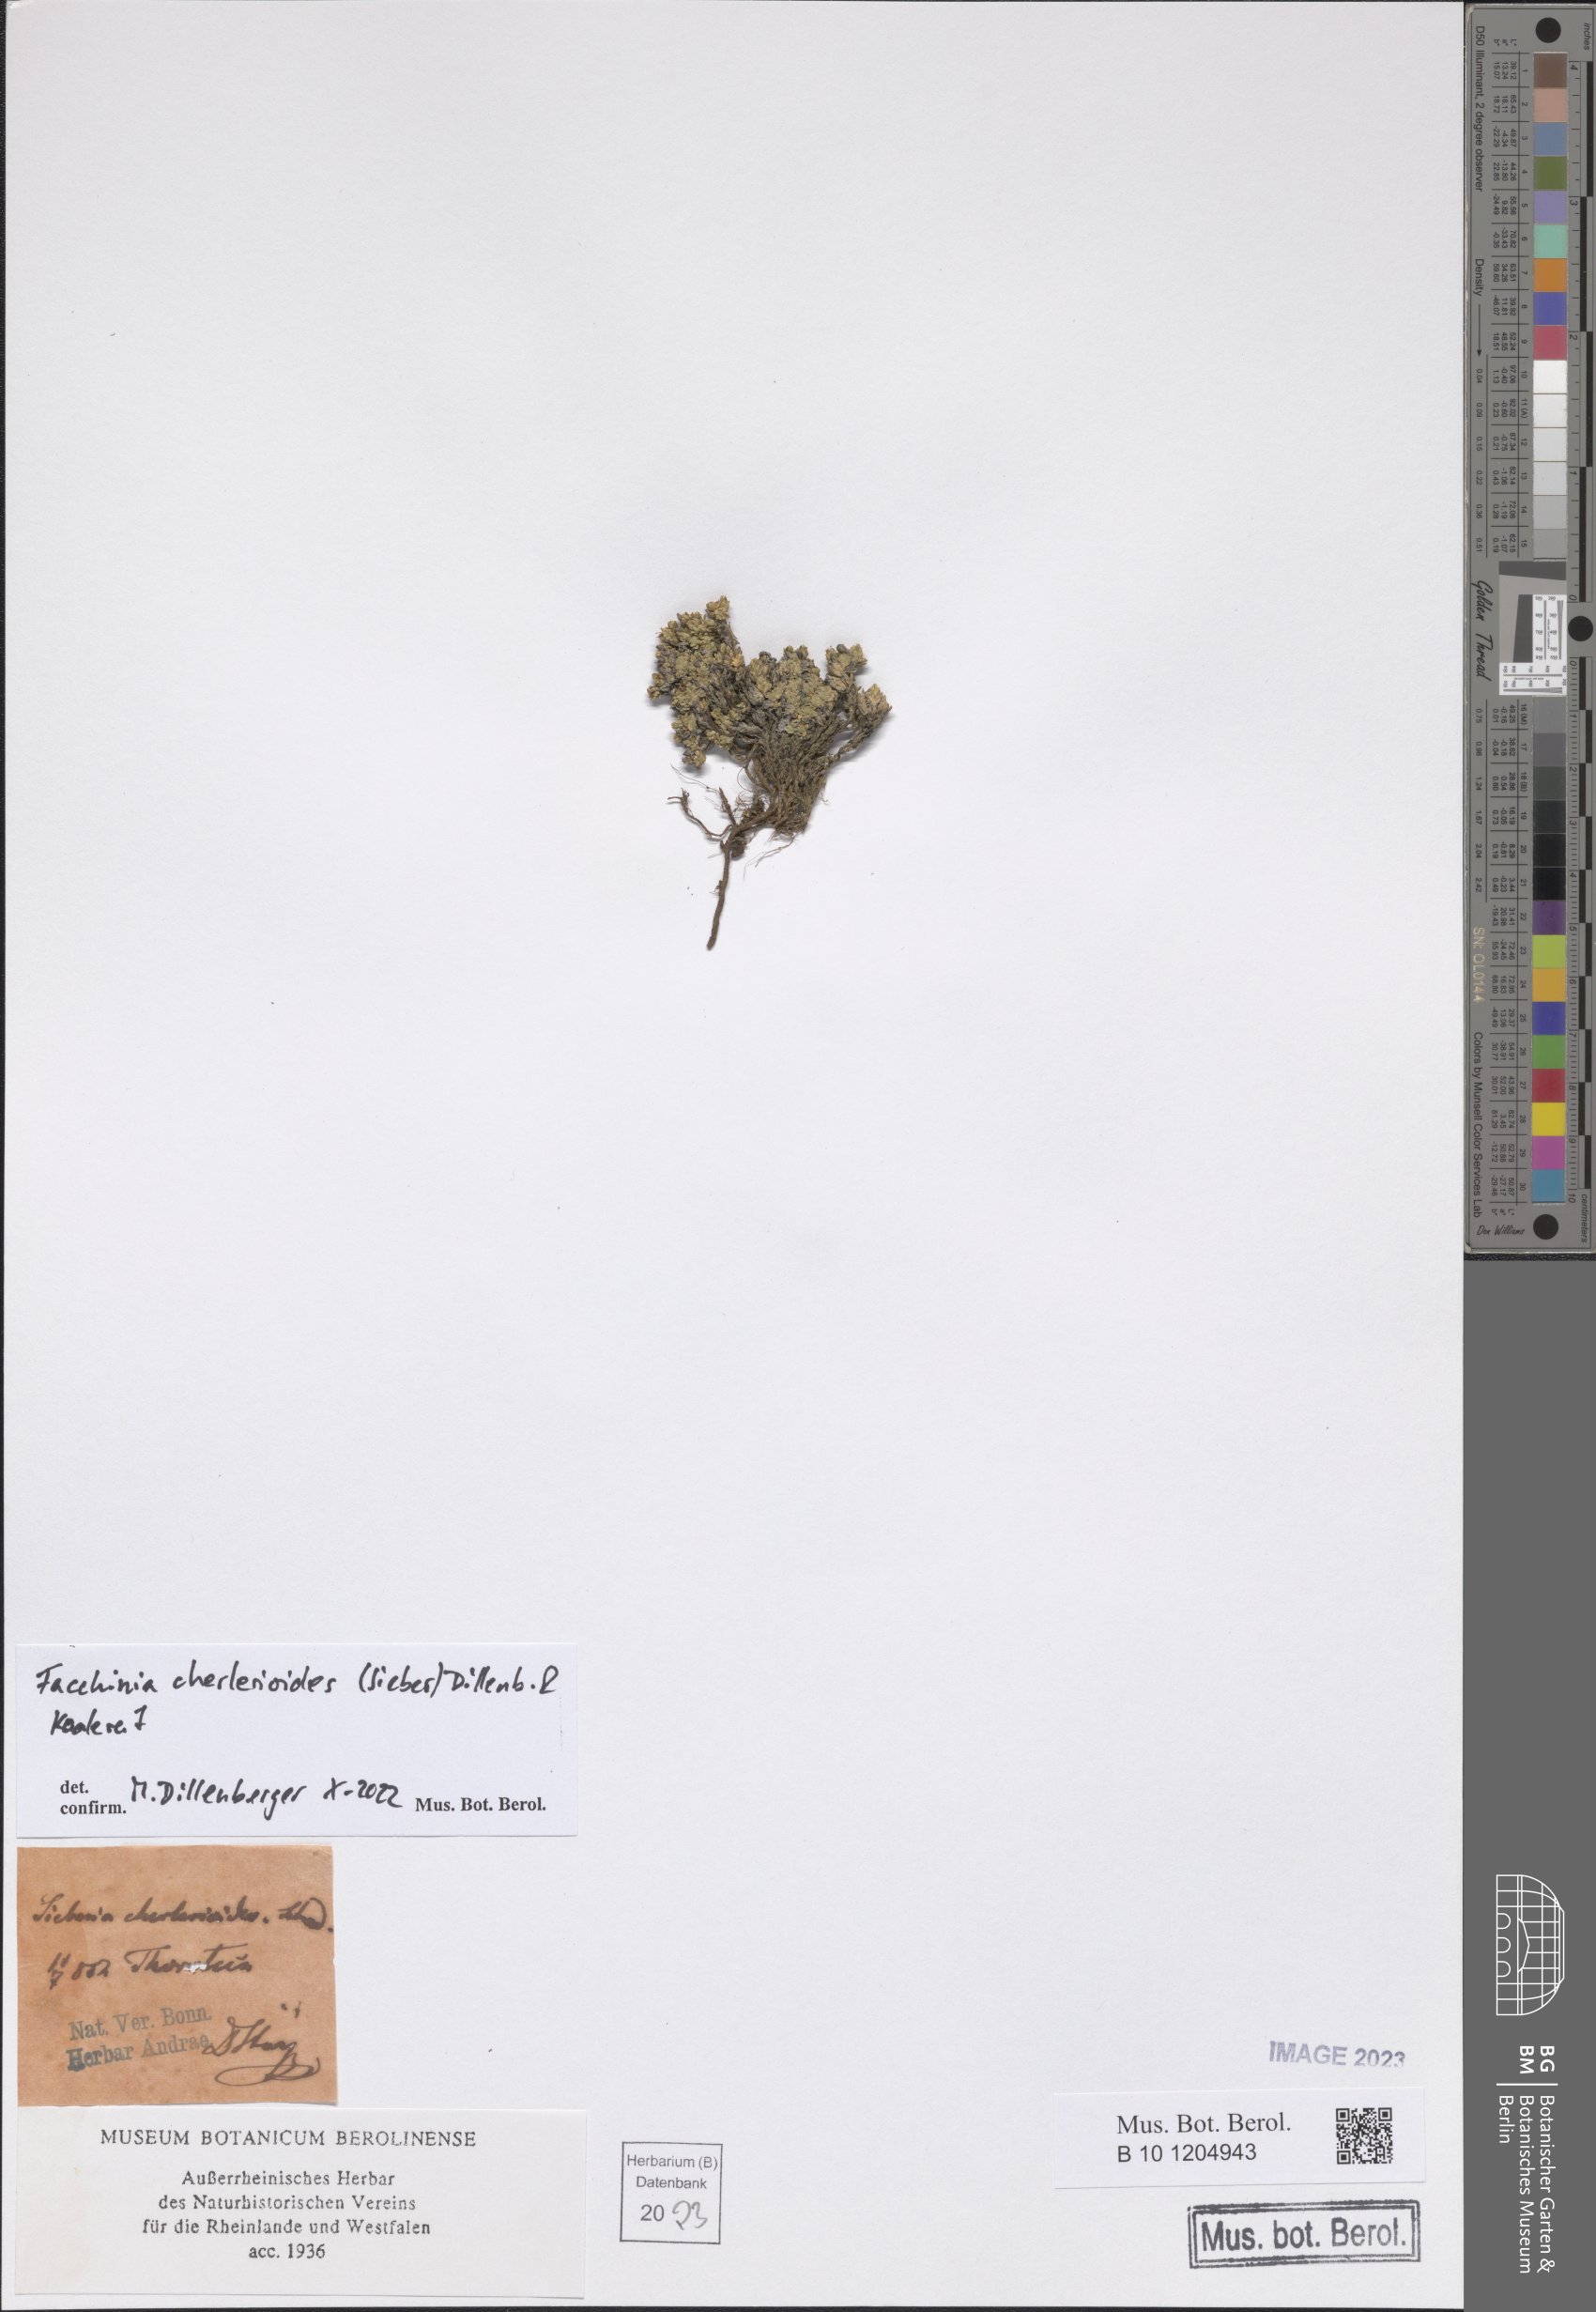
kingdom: Plantae
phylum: Tracheophyta
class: Magnoliopsida
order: Caryophyllales
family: Caryophyllaceae
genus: Facchinia
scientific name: Facchinia cherlerioides
